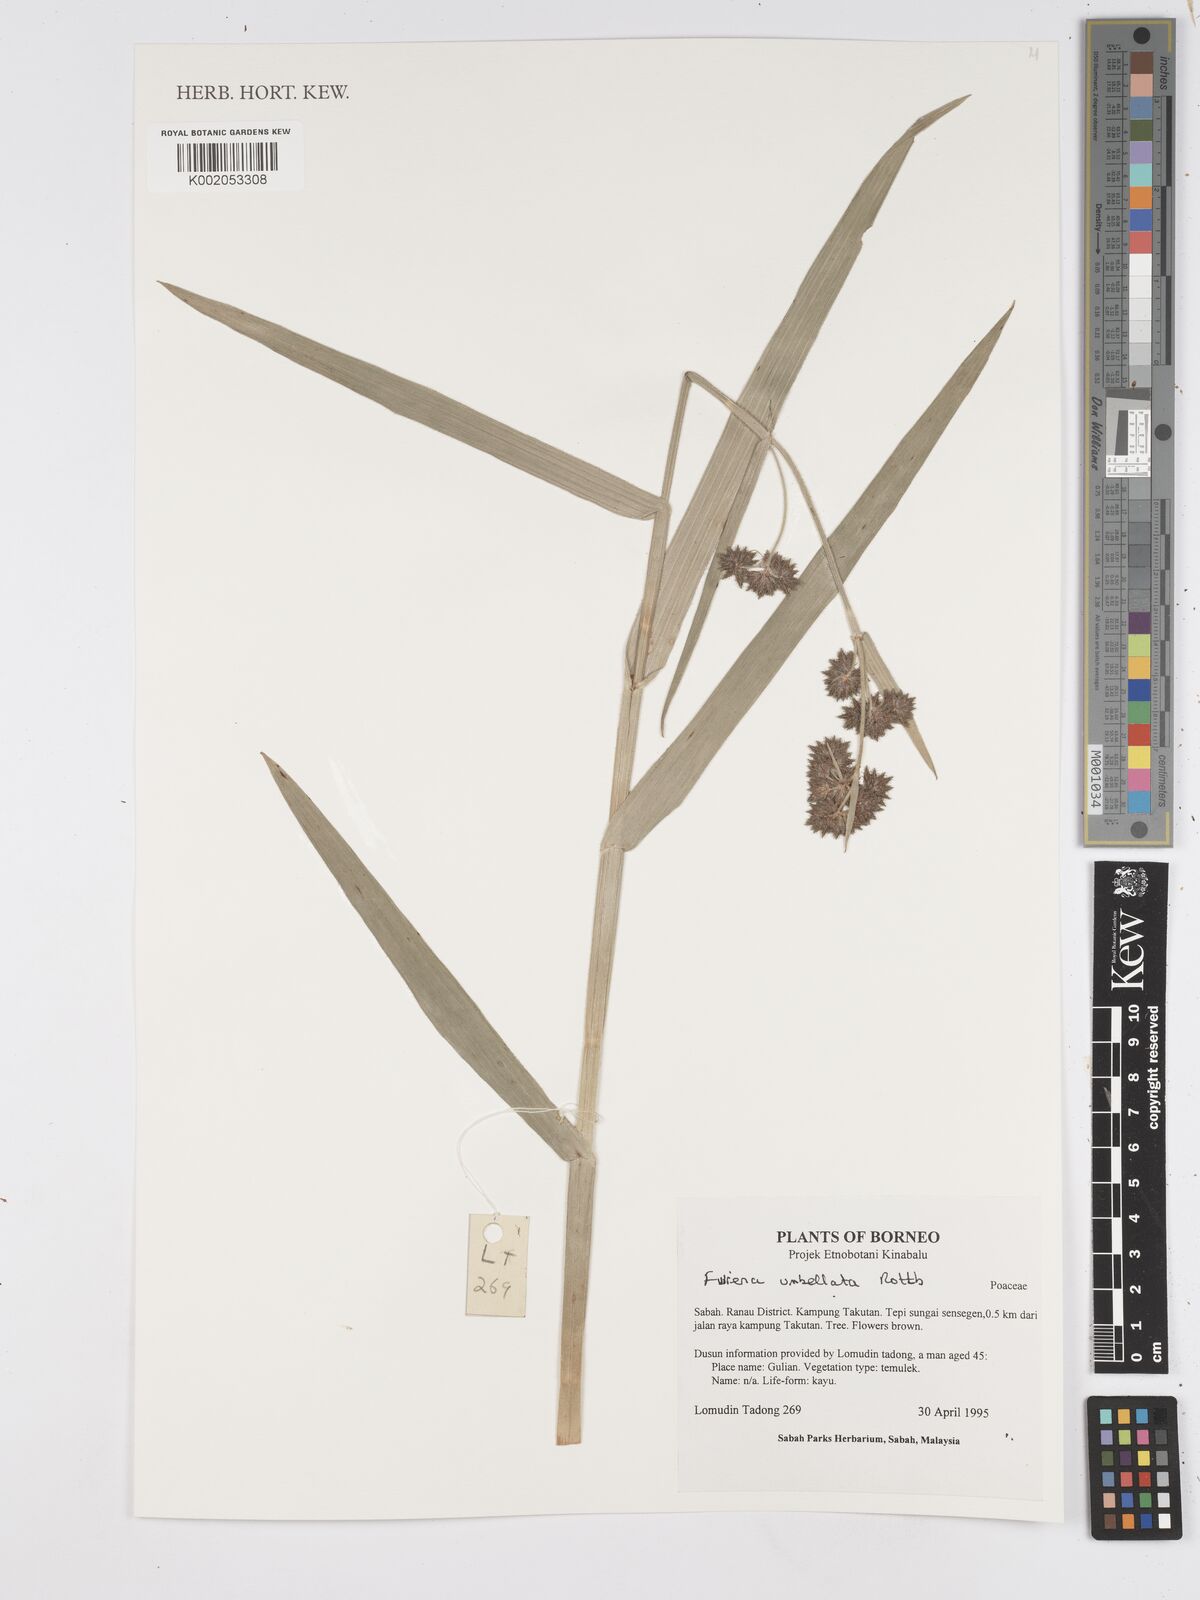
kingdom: Plantae
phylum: Tracheophyta
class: Liliopsida
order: Poales
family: Cyperaceae
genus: Fuirena
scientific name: Fuirena umbellata
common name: Yefen
